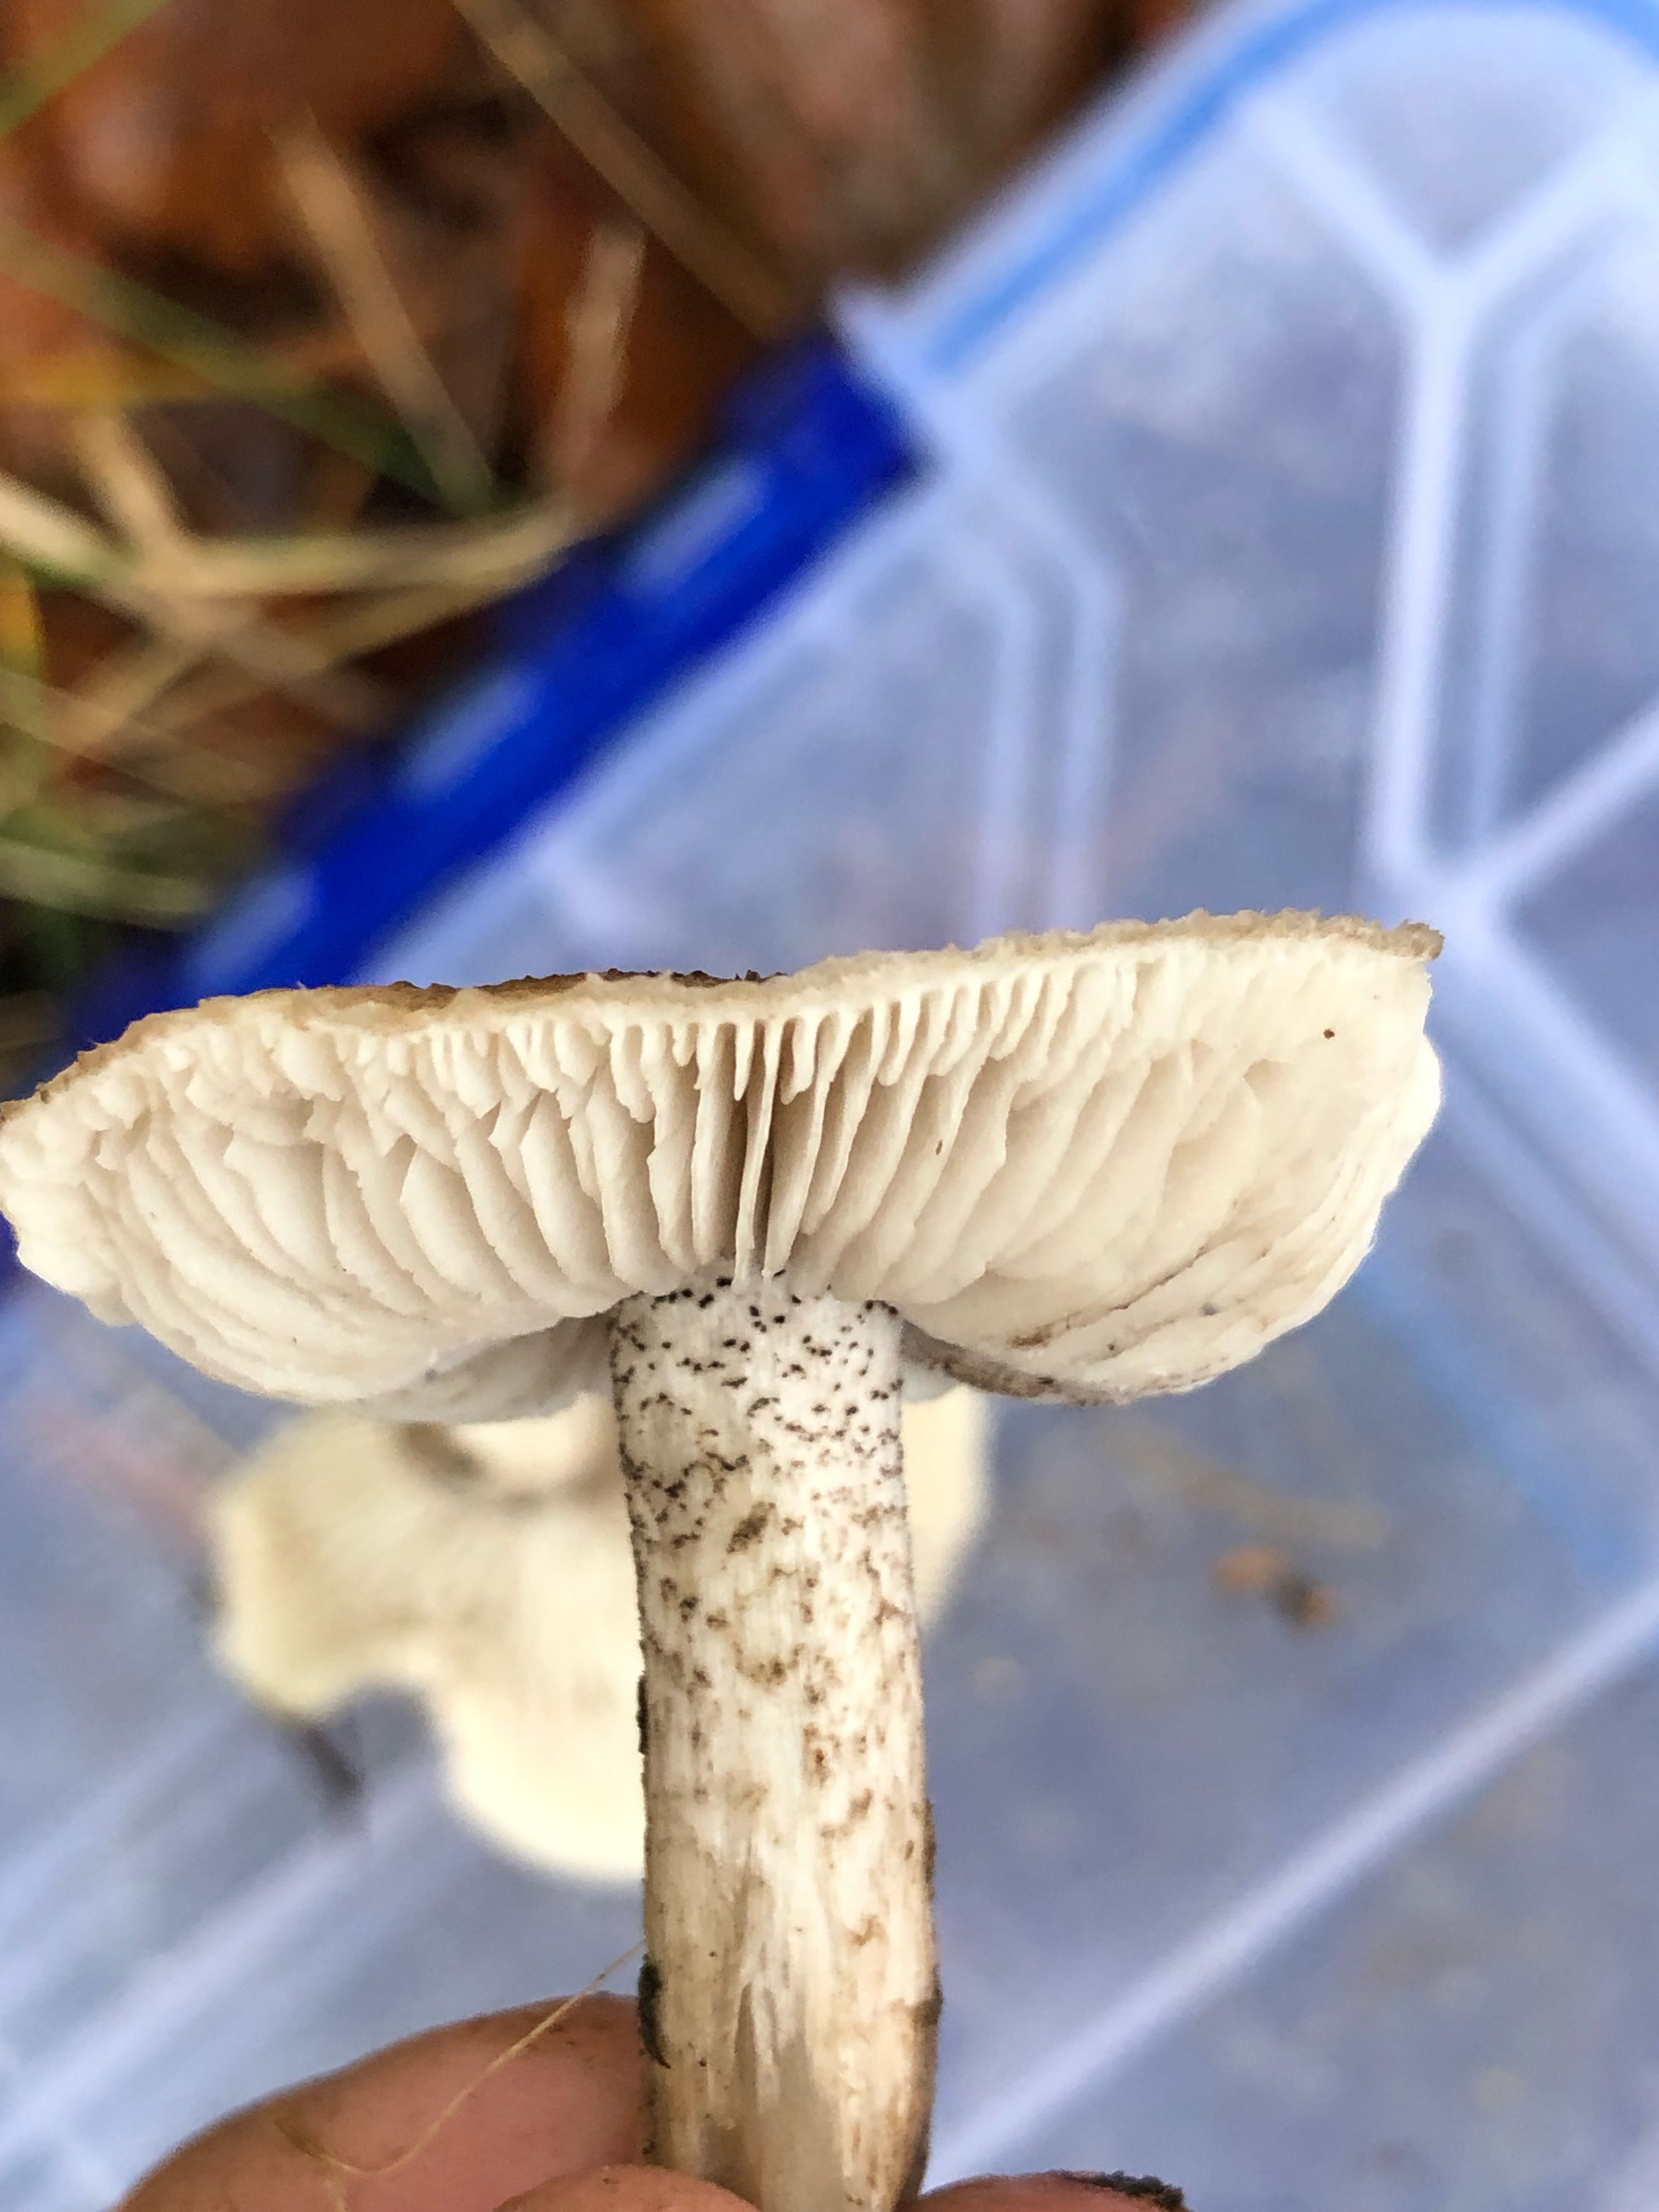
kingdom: Fungi
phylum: Basidiomycota
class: Agaricomycetes
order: Agaricales
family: Tricholomataceae
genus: Tricholoma
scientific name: Tricholoma atrosquamosum
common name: sortskællet ridderhat
